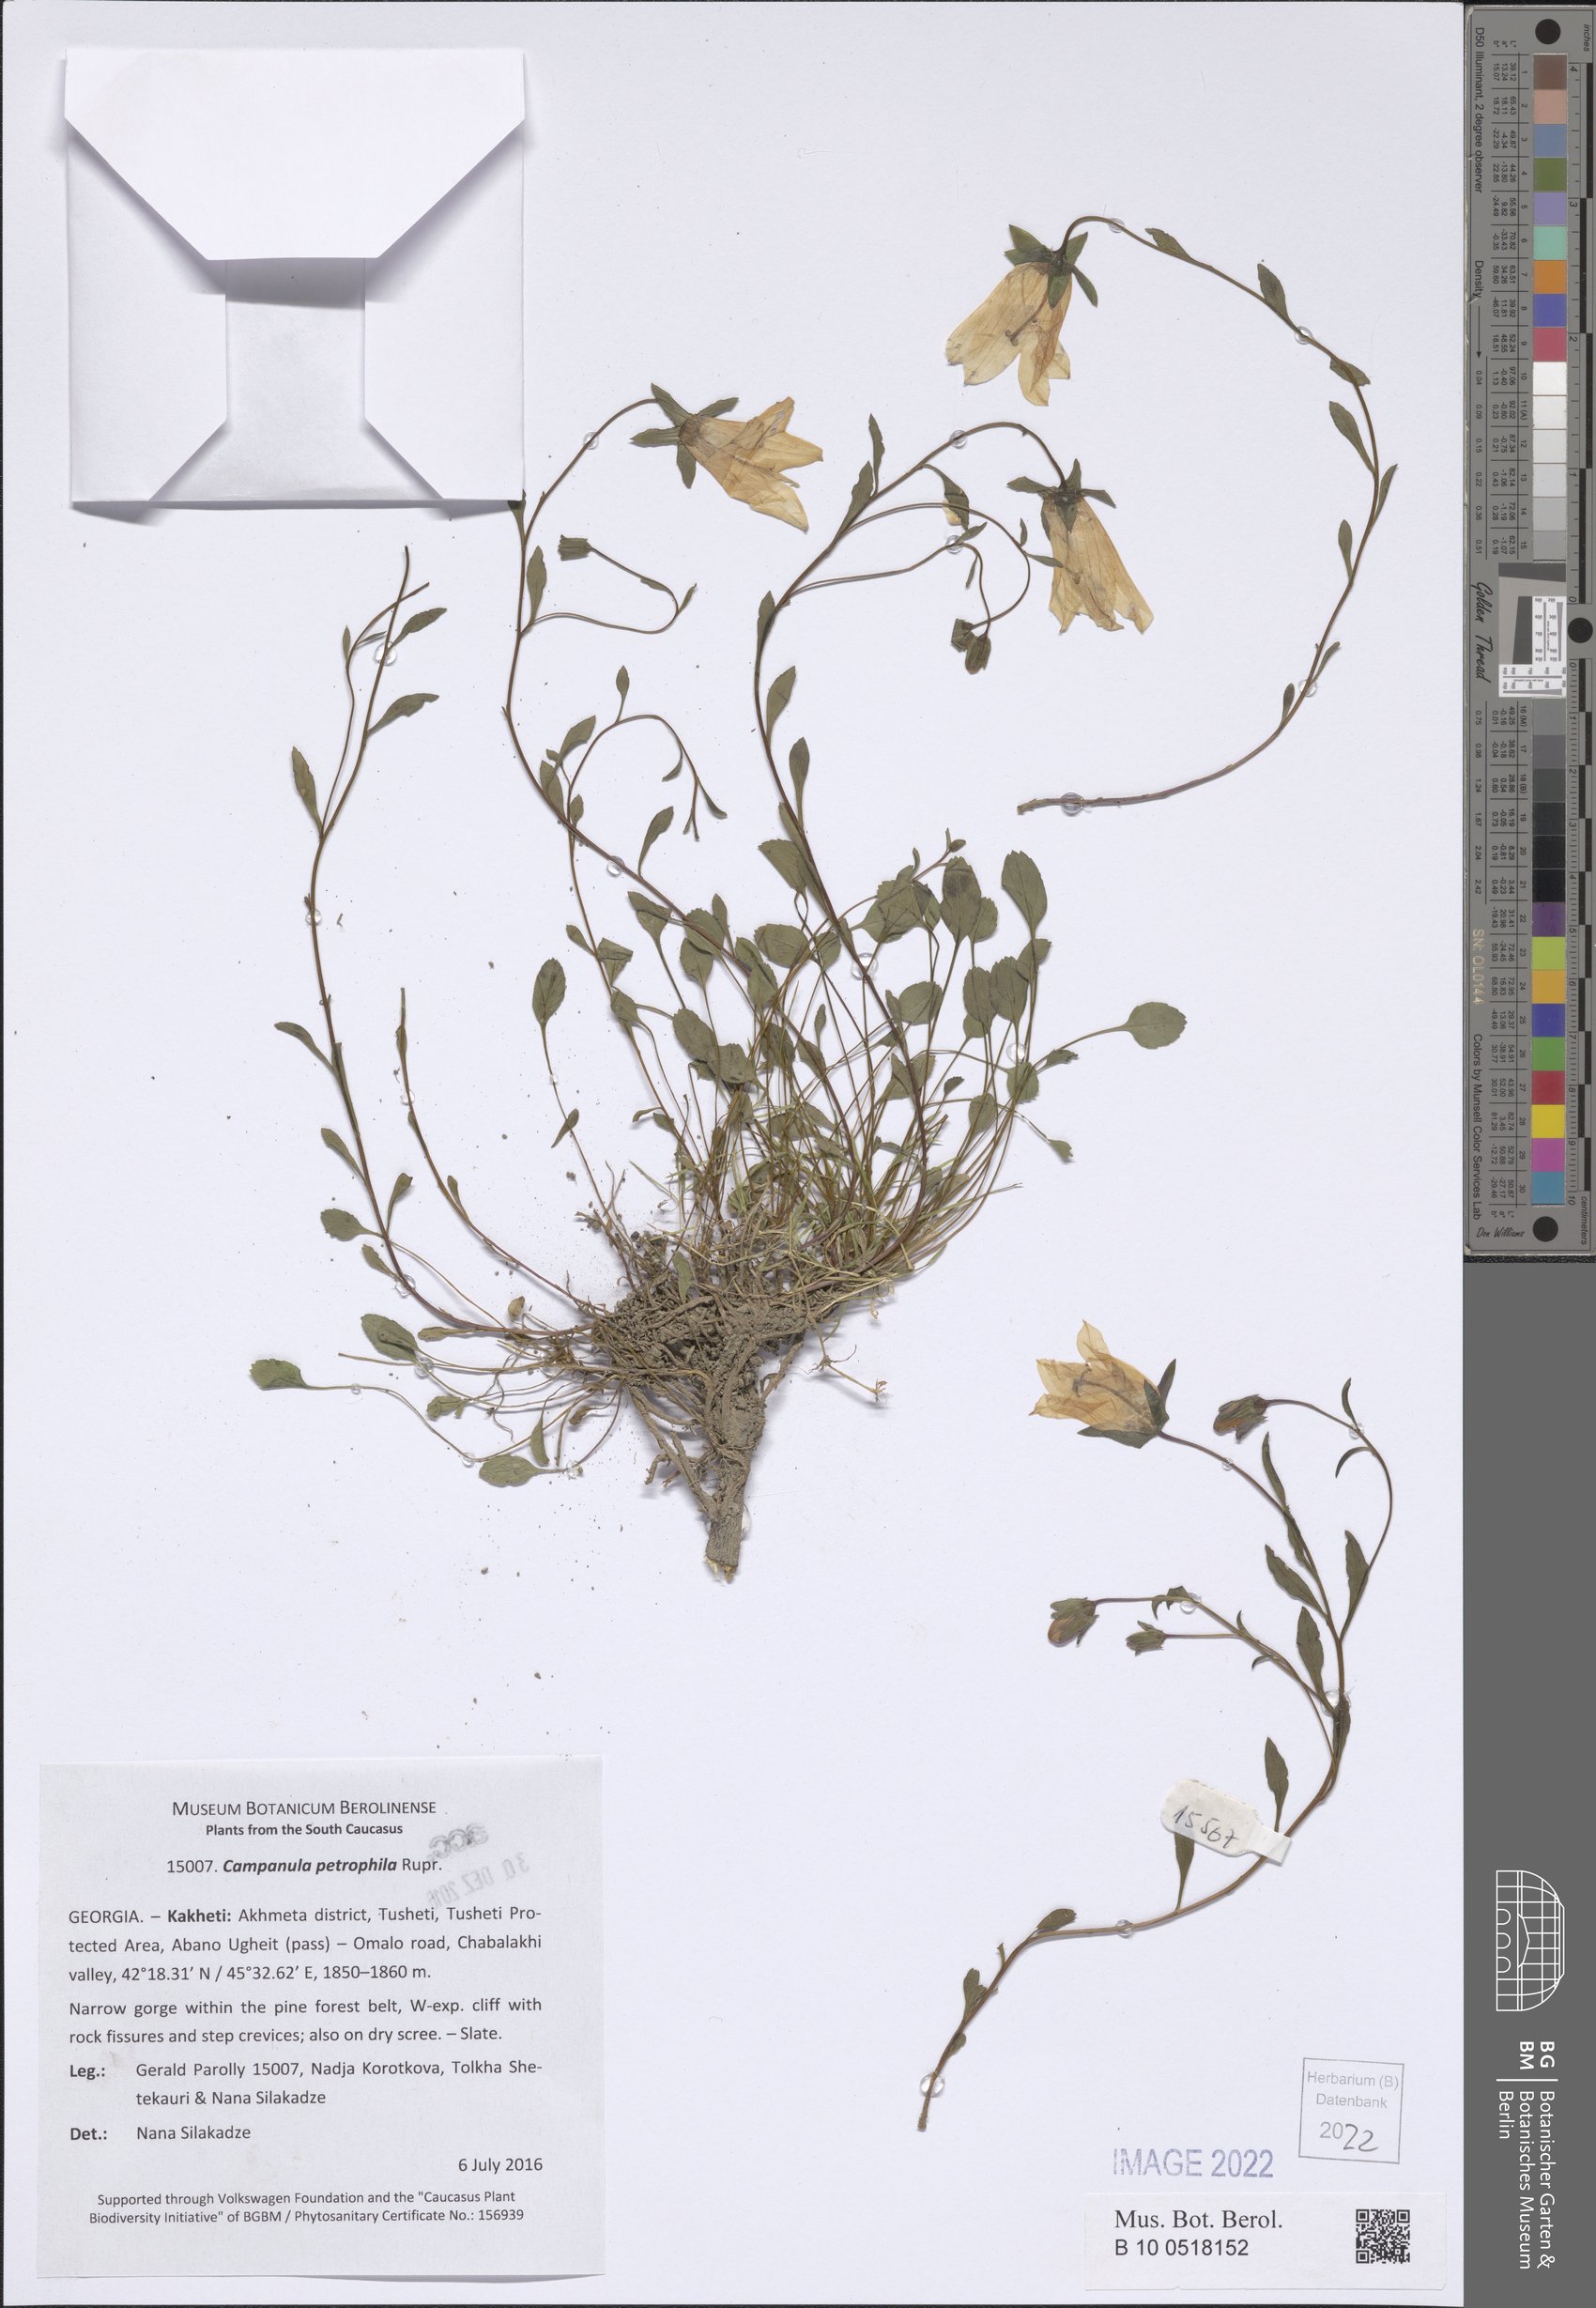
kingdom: Plantae
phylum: Tracheophyta
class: Magnoliopsida
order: Asterales
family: Campanulaceae
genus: Campanula
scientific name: Campanula petrophila
